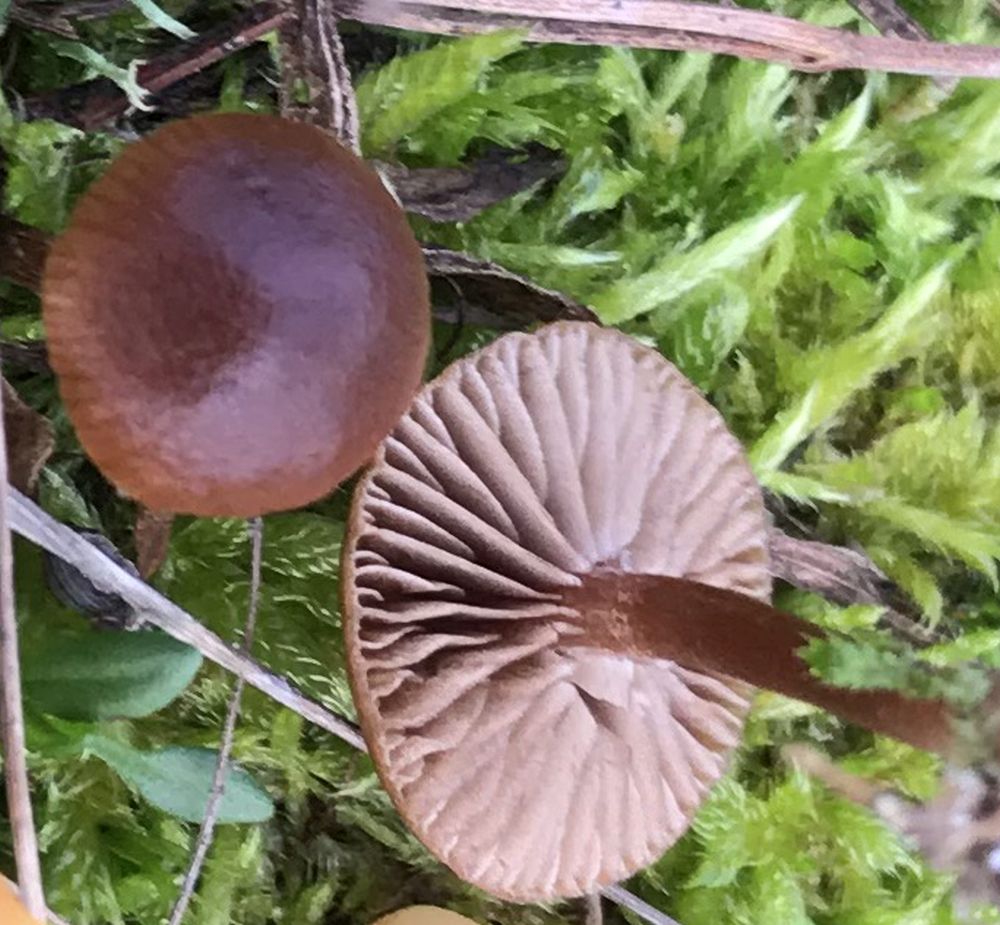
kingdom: Fungi
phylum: Basidiomycota
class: Agaricomycetes
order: Agaricales
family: Strophariaceae
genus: Deconica
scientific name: Deconica montana
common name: rødbrun stråhat
